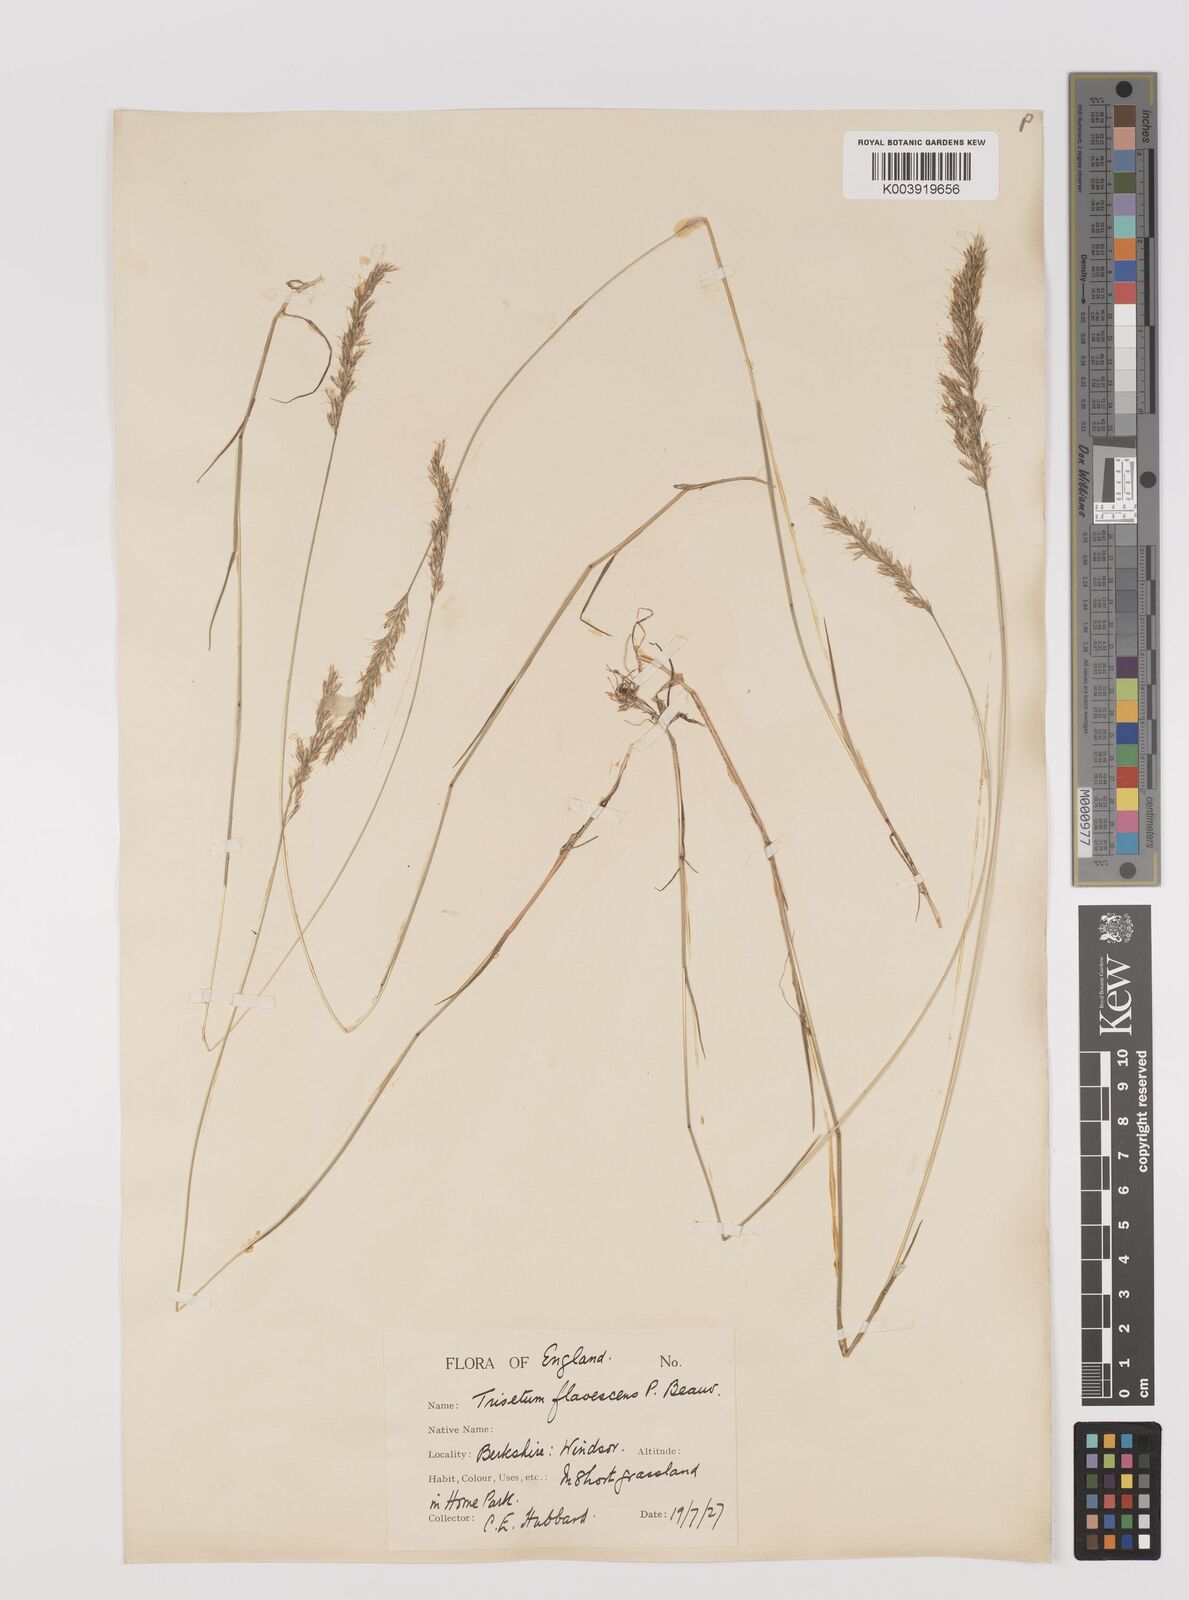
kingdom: Plantae
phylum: Tracheophyta
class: Liliopsida
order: Poales
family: Poaceae
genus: Trisetum
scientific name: Trisetum flavescens
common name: Yellow oat-grass
